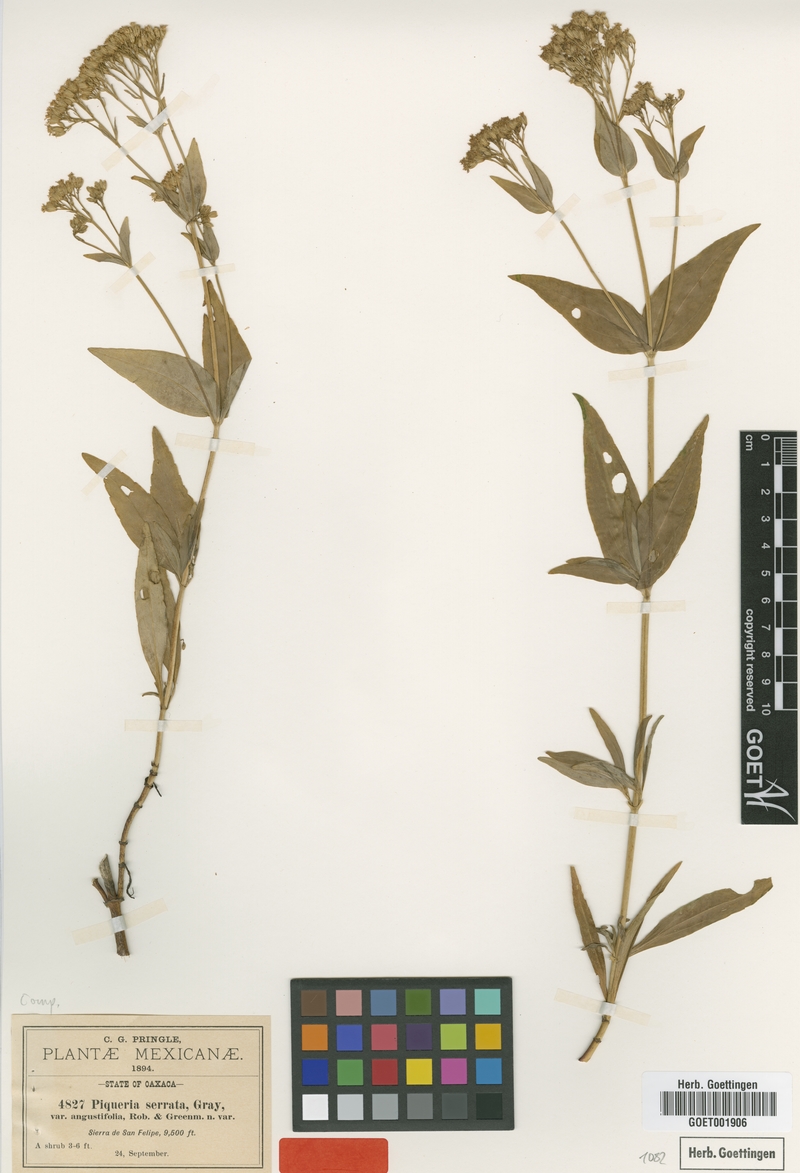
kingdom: Plantae
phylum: Tracheophyta
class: Magnoliopsida
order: Asterales
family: Asteraceae
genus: Piqueria
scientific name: Piqueria trinervia
